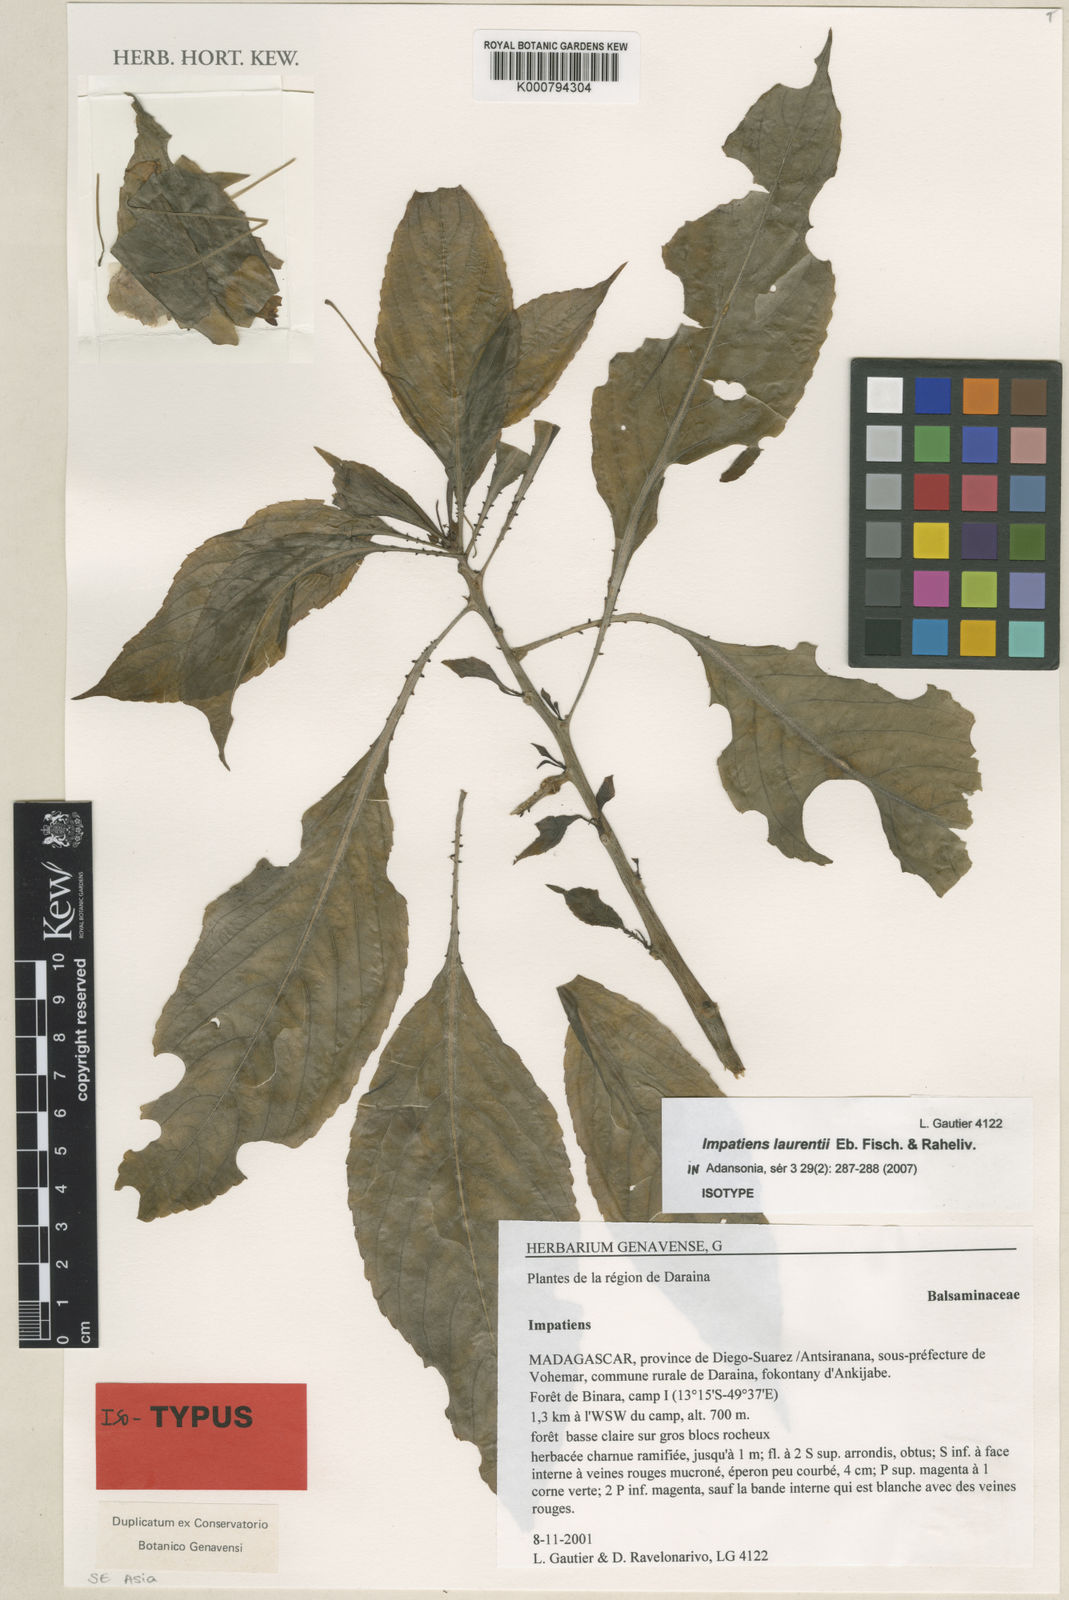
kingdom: Plantae
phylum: Tracheophyta
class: Magnoliopsida
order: Ericales
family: Balsaminaceae
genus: Impatiens
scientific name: Impatiens laurentii
